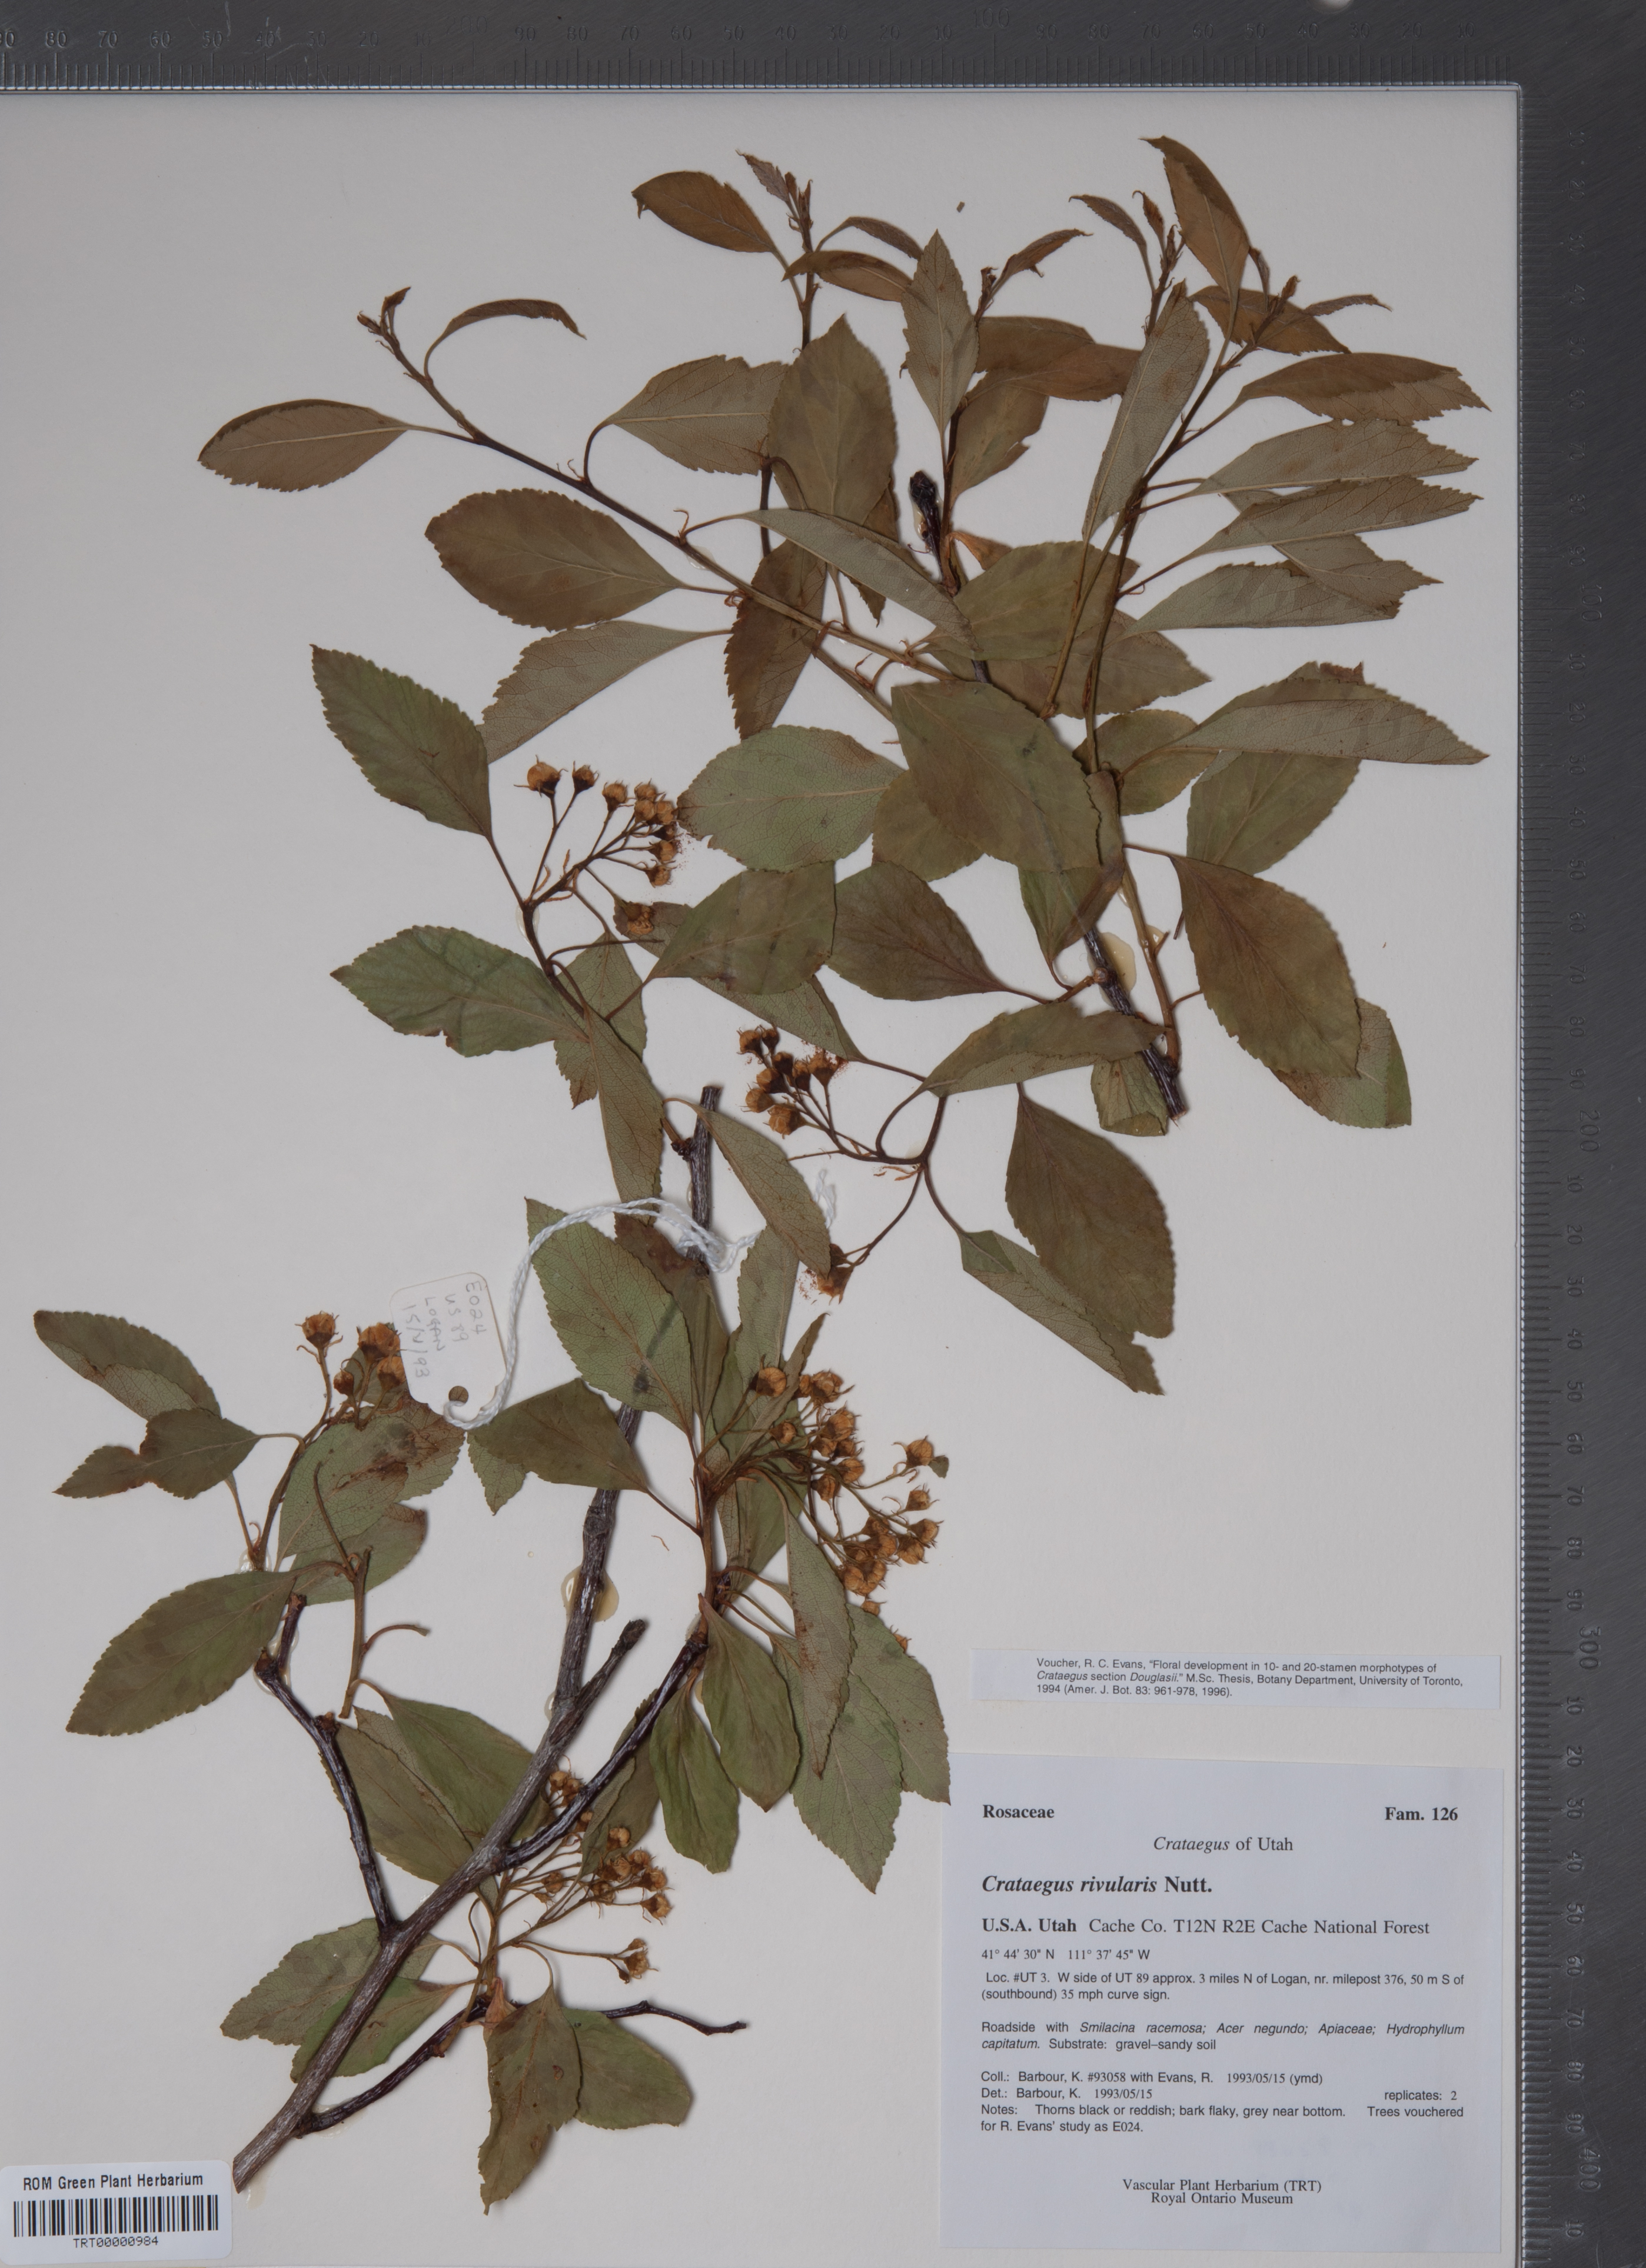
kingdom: Plantae
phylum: Tracheophyta
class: Magnoliopsida
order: Rosales
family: Rosaceae
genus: Crataegus
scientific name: Crataegus rivularis
